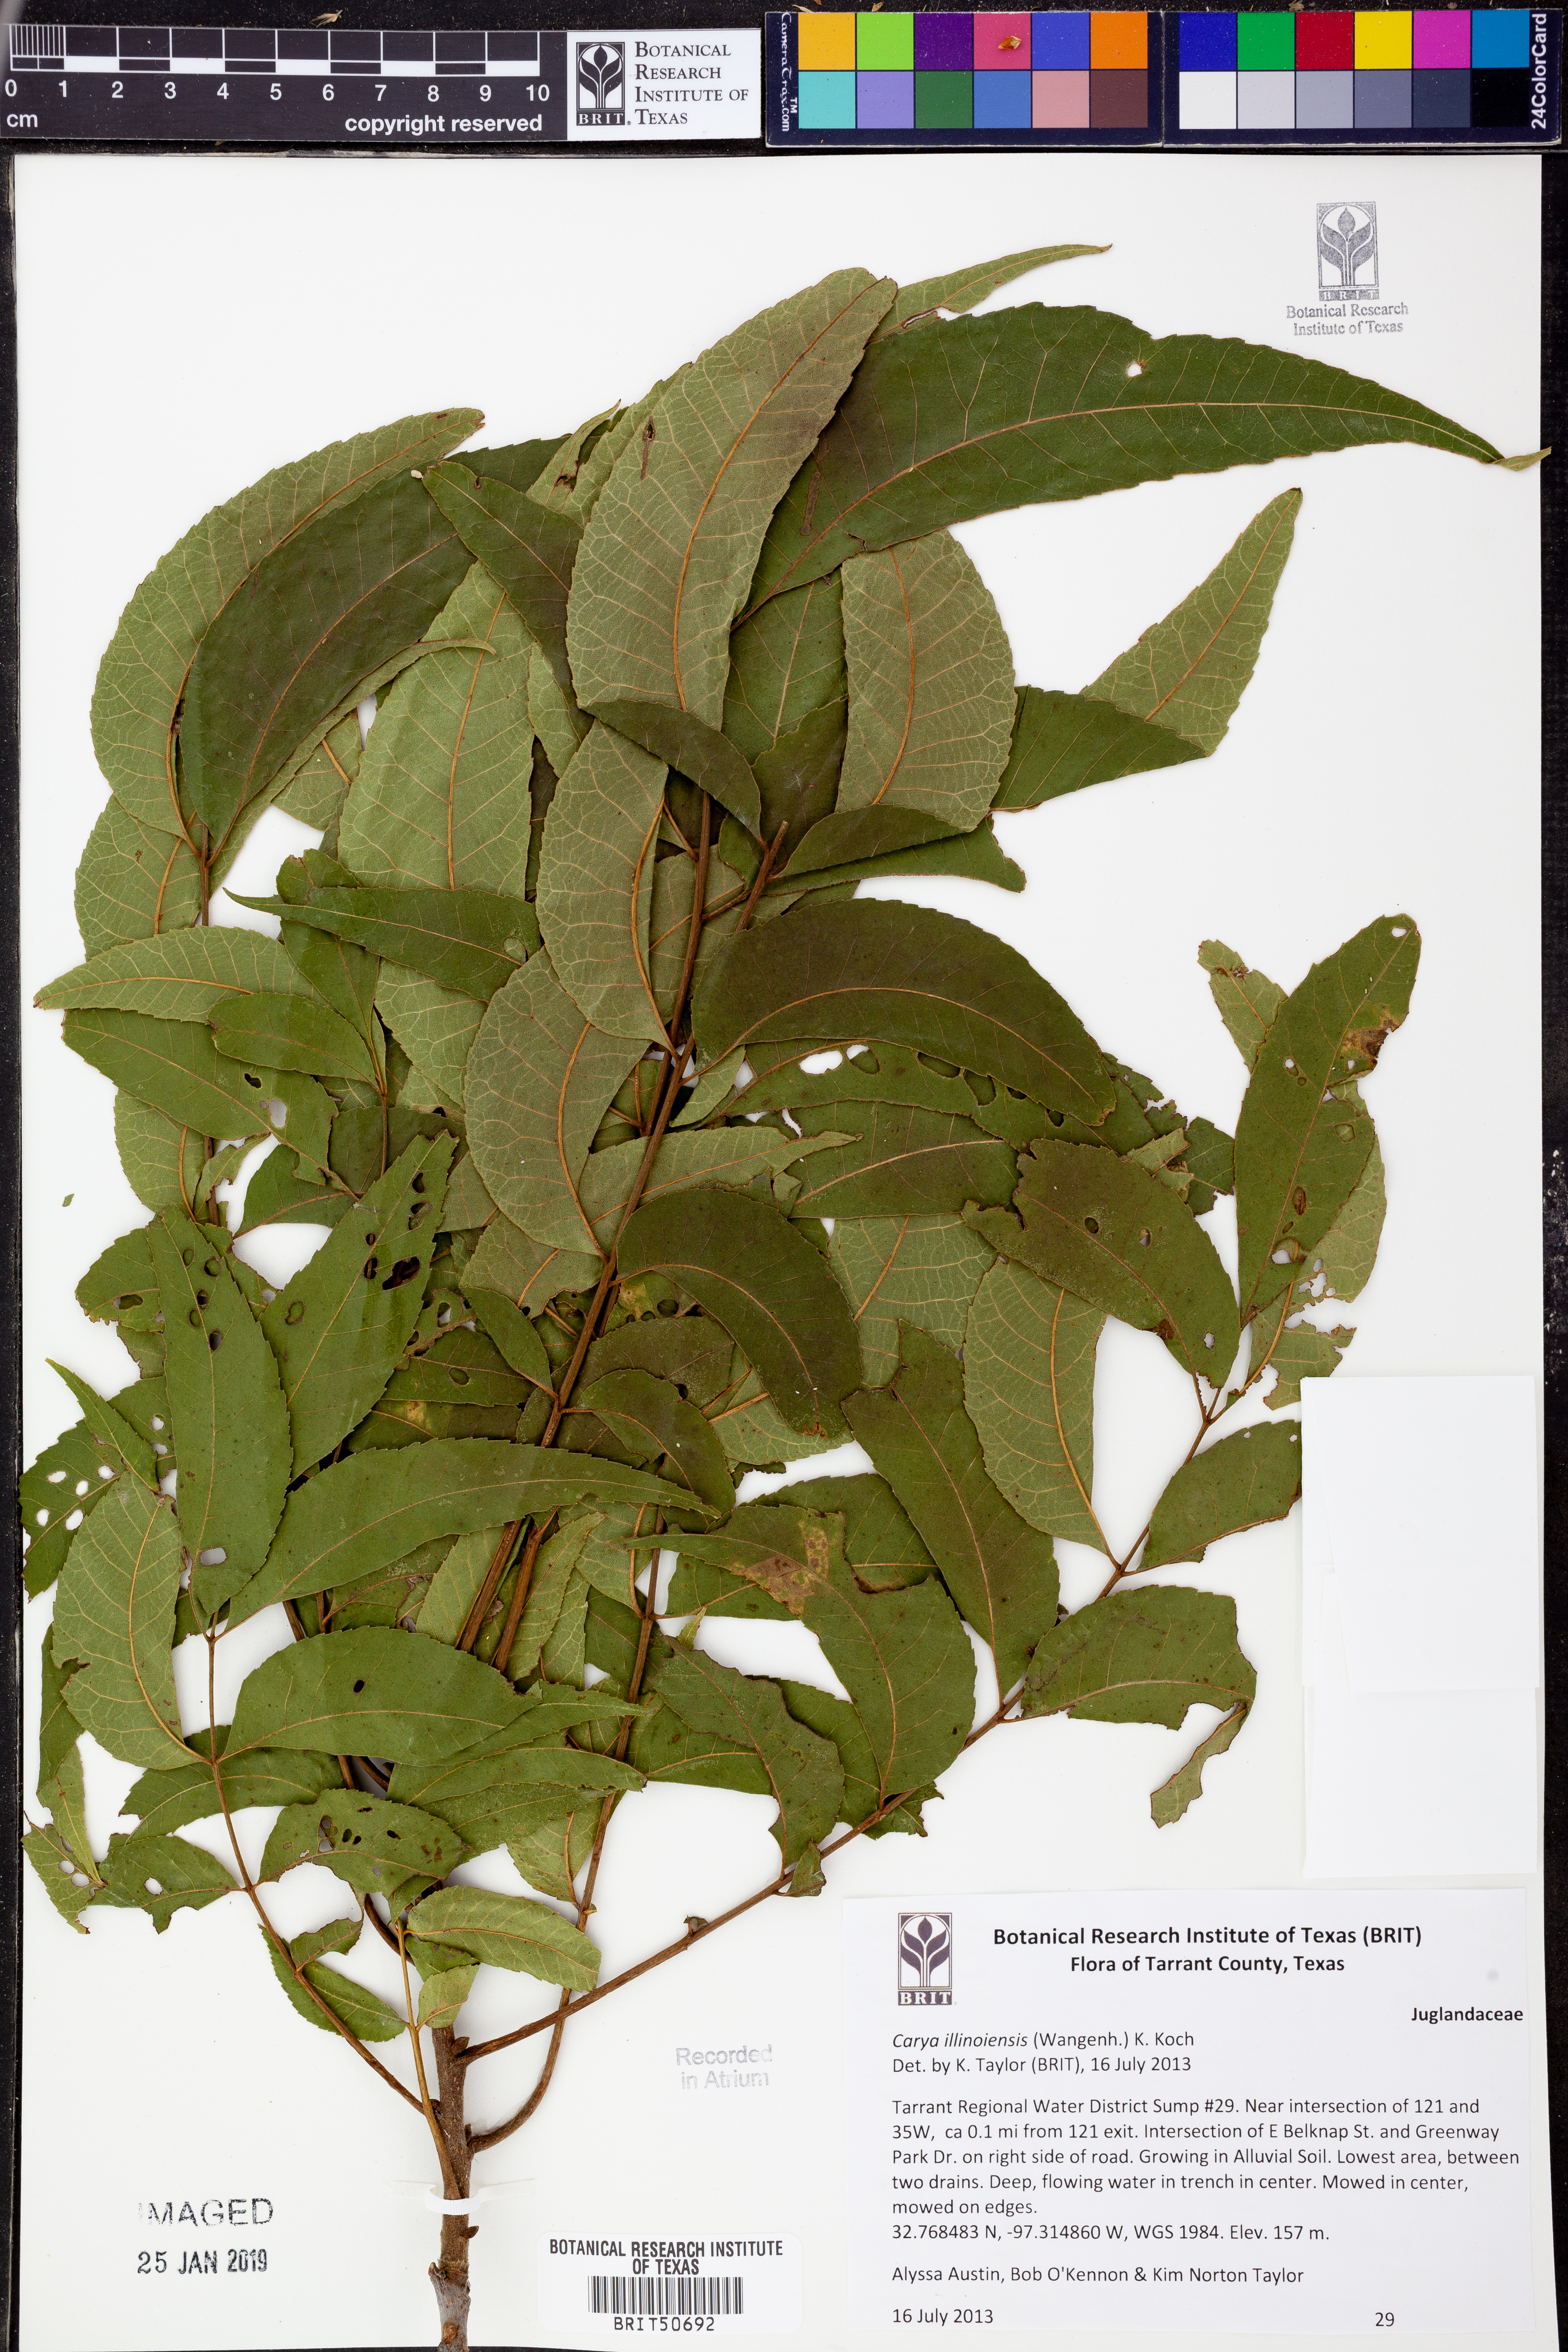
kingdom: Plantae
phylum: Tracheophyta
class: Magnoliopsida
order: Fagales
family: Juglandaceae
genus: Carya
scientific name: Carya
